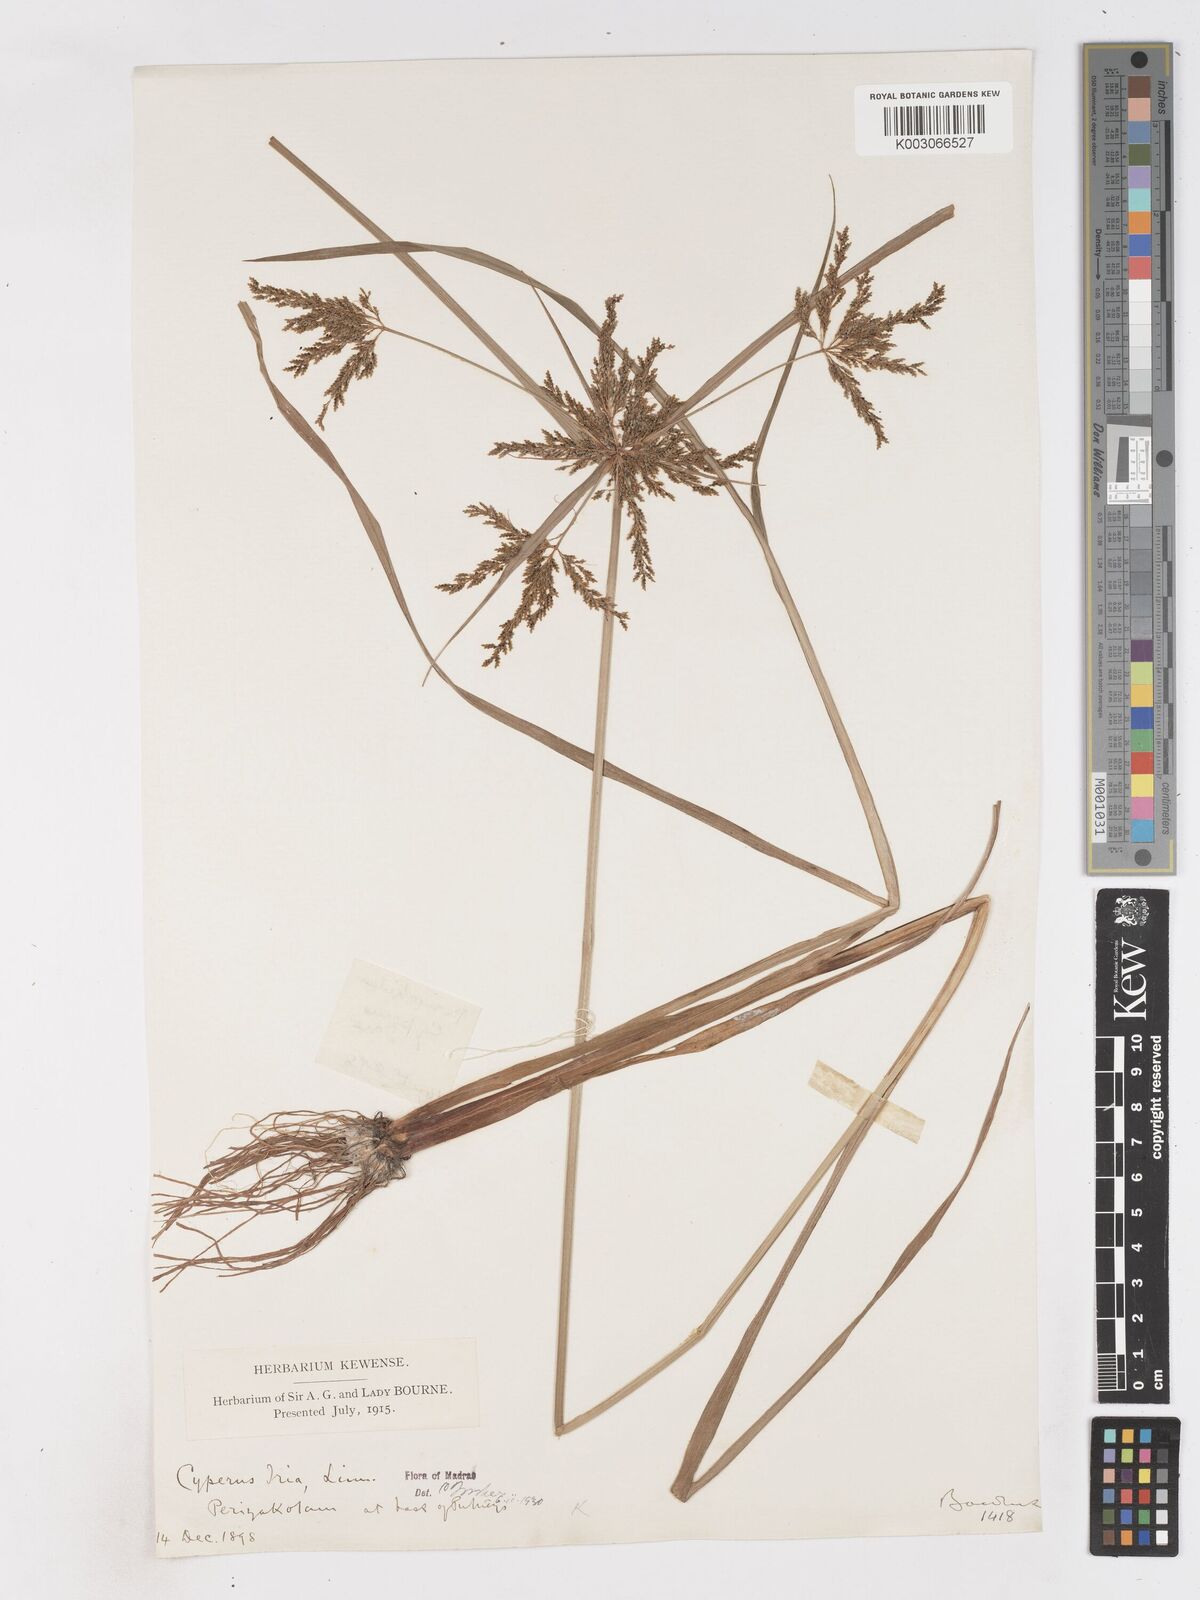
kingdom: Plantae
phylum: Tracheophyta
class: Liliopsida
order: Poales
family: Cyperaceae
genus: Cyperus
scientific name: Cyperus iria
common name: Ricefield flatsedge
